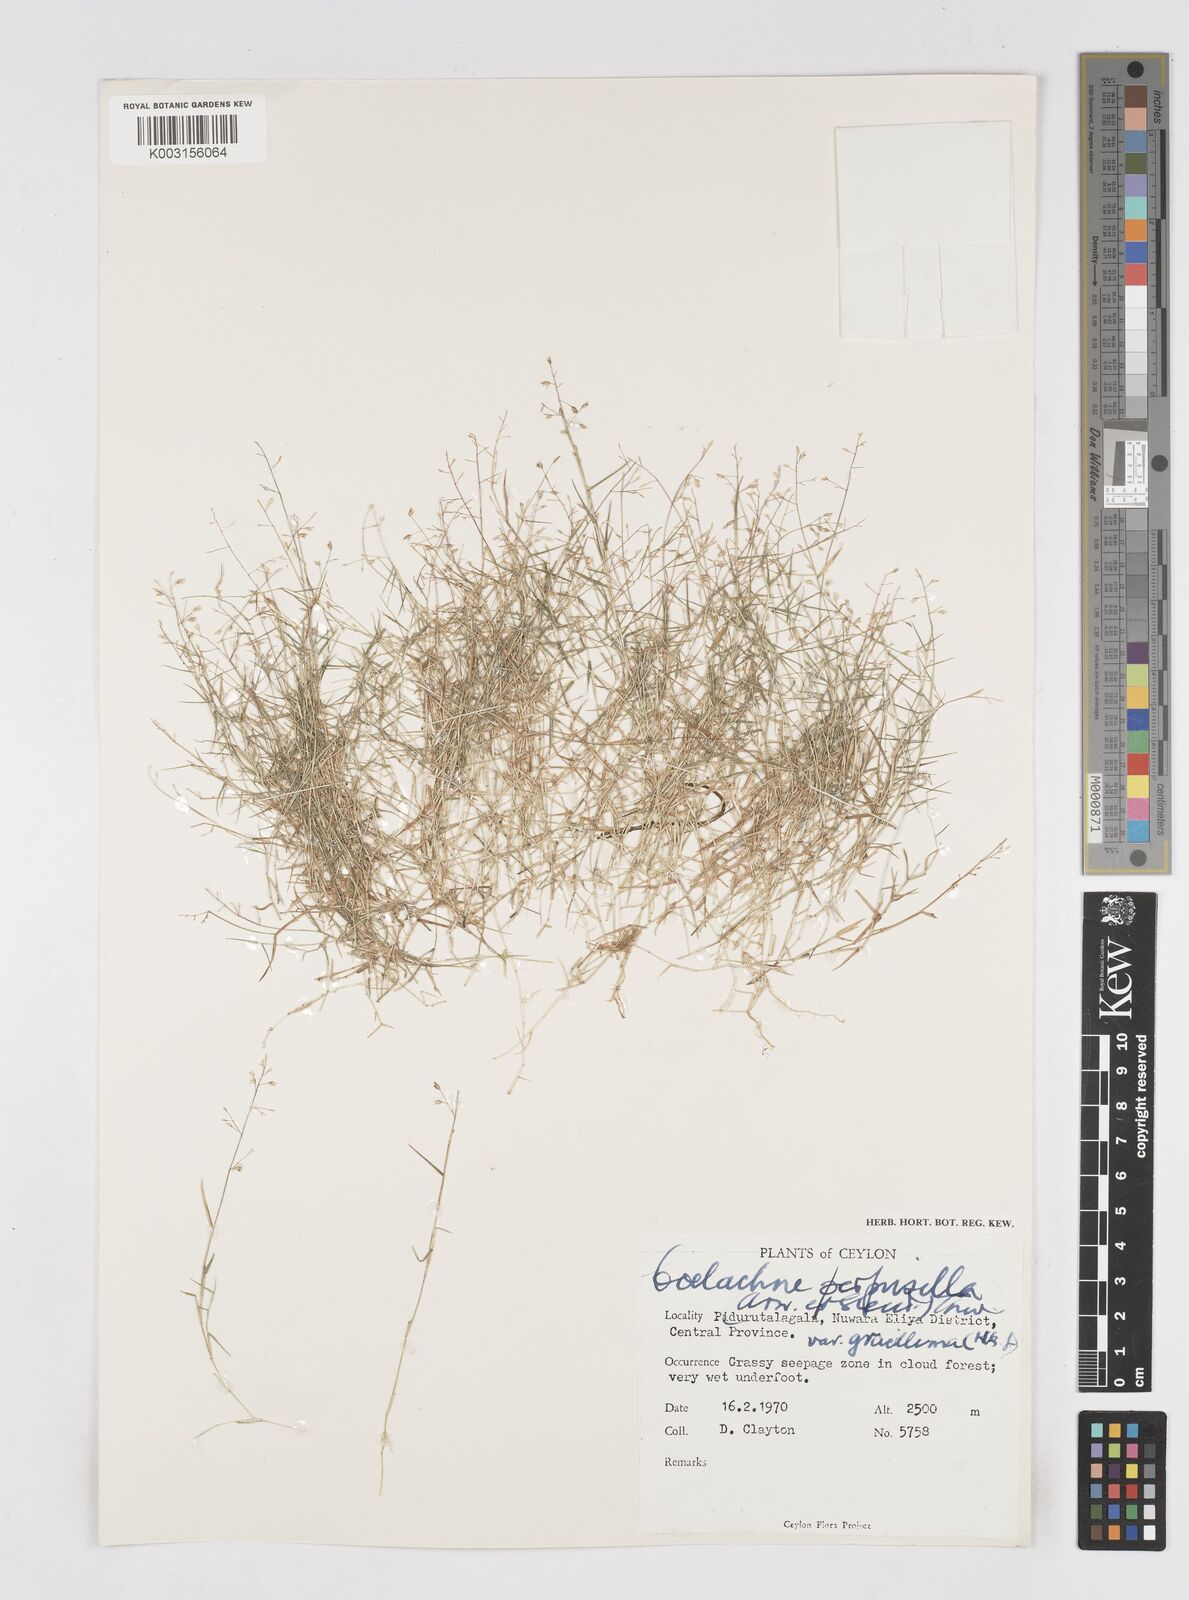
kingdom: Plantae
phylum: Tracheophyta
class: Liliopsida
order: Poales
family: Poaceae
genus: Coelachne
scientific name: Coelachne perpusilla
